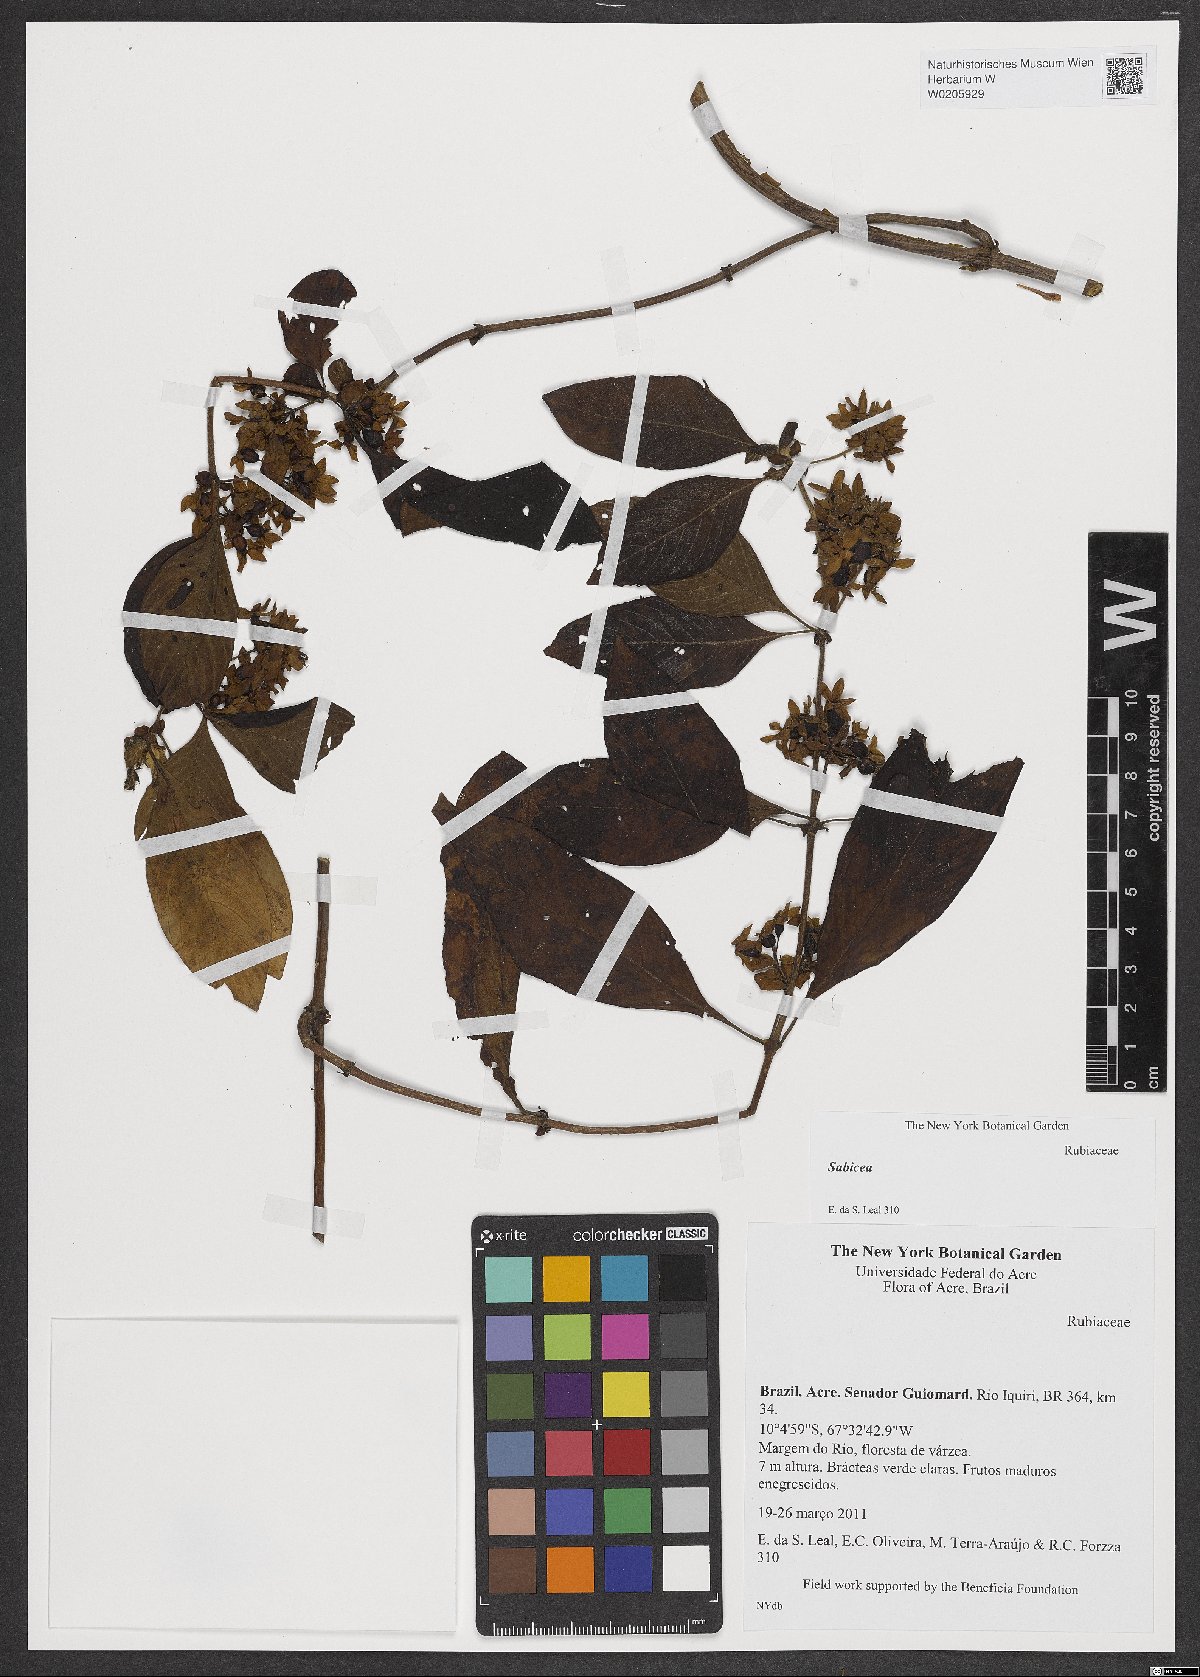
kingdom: Plantae
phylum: Tracheophyta
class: Magnoliopsida
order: Gentianales
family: Rubiaceae
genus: Sabicea
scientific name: Sabicea
